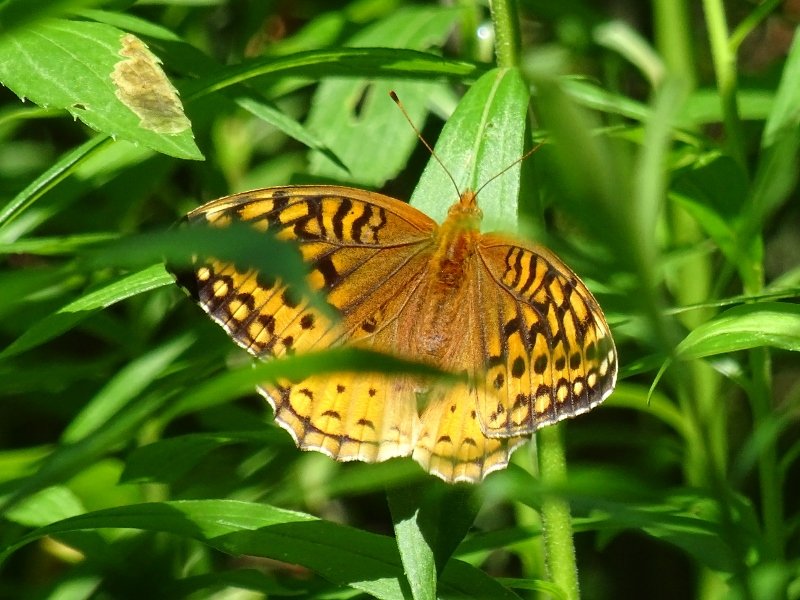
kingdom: Animalia
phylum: Arthropoda
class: Insecta
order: Lepidoptera
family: Nymphalidae
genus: Speyeria
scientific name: Speyeria cybele
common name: Great Spangled Fritillary
